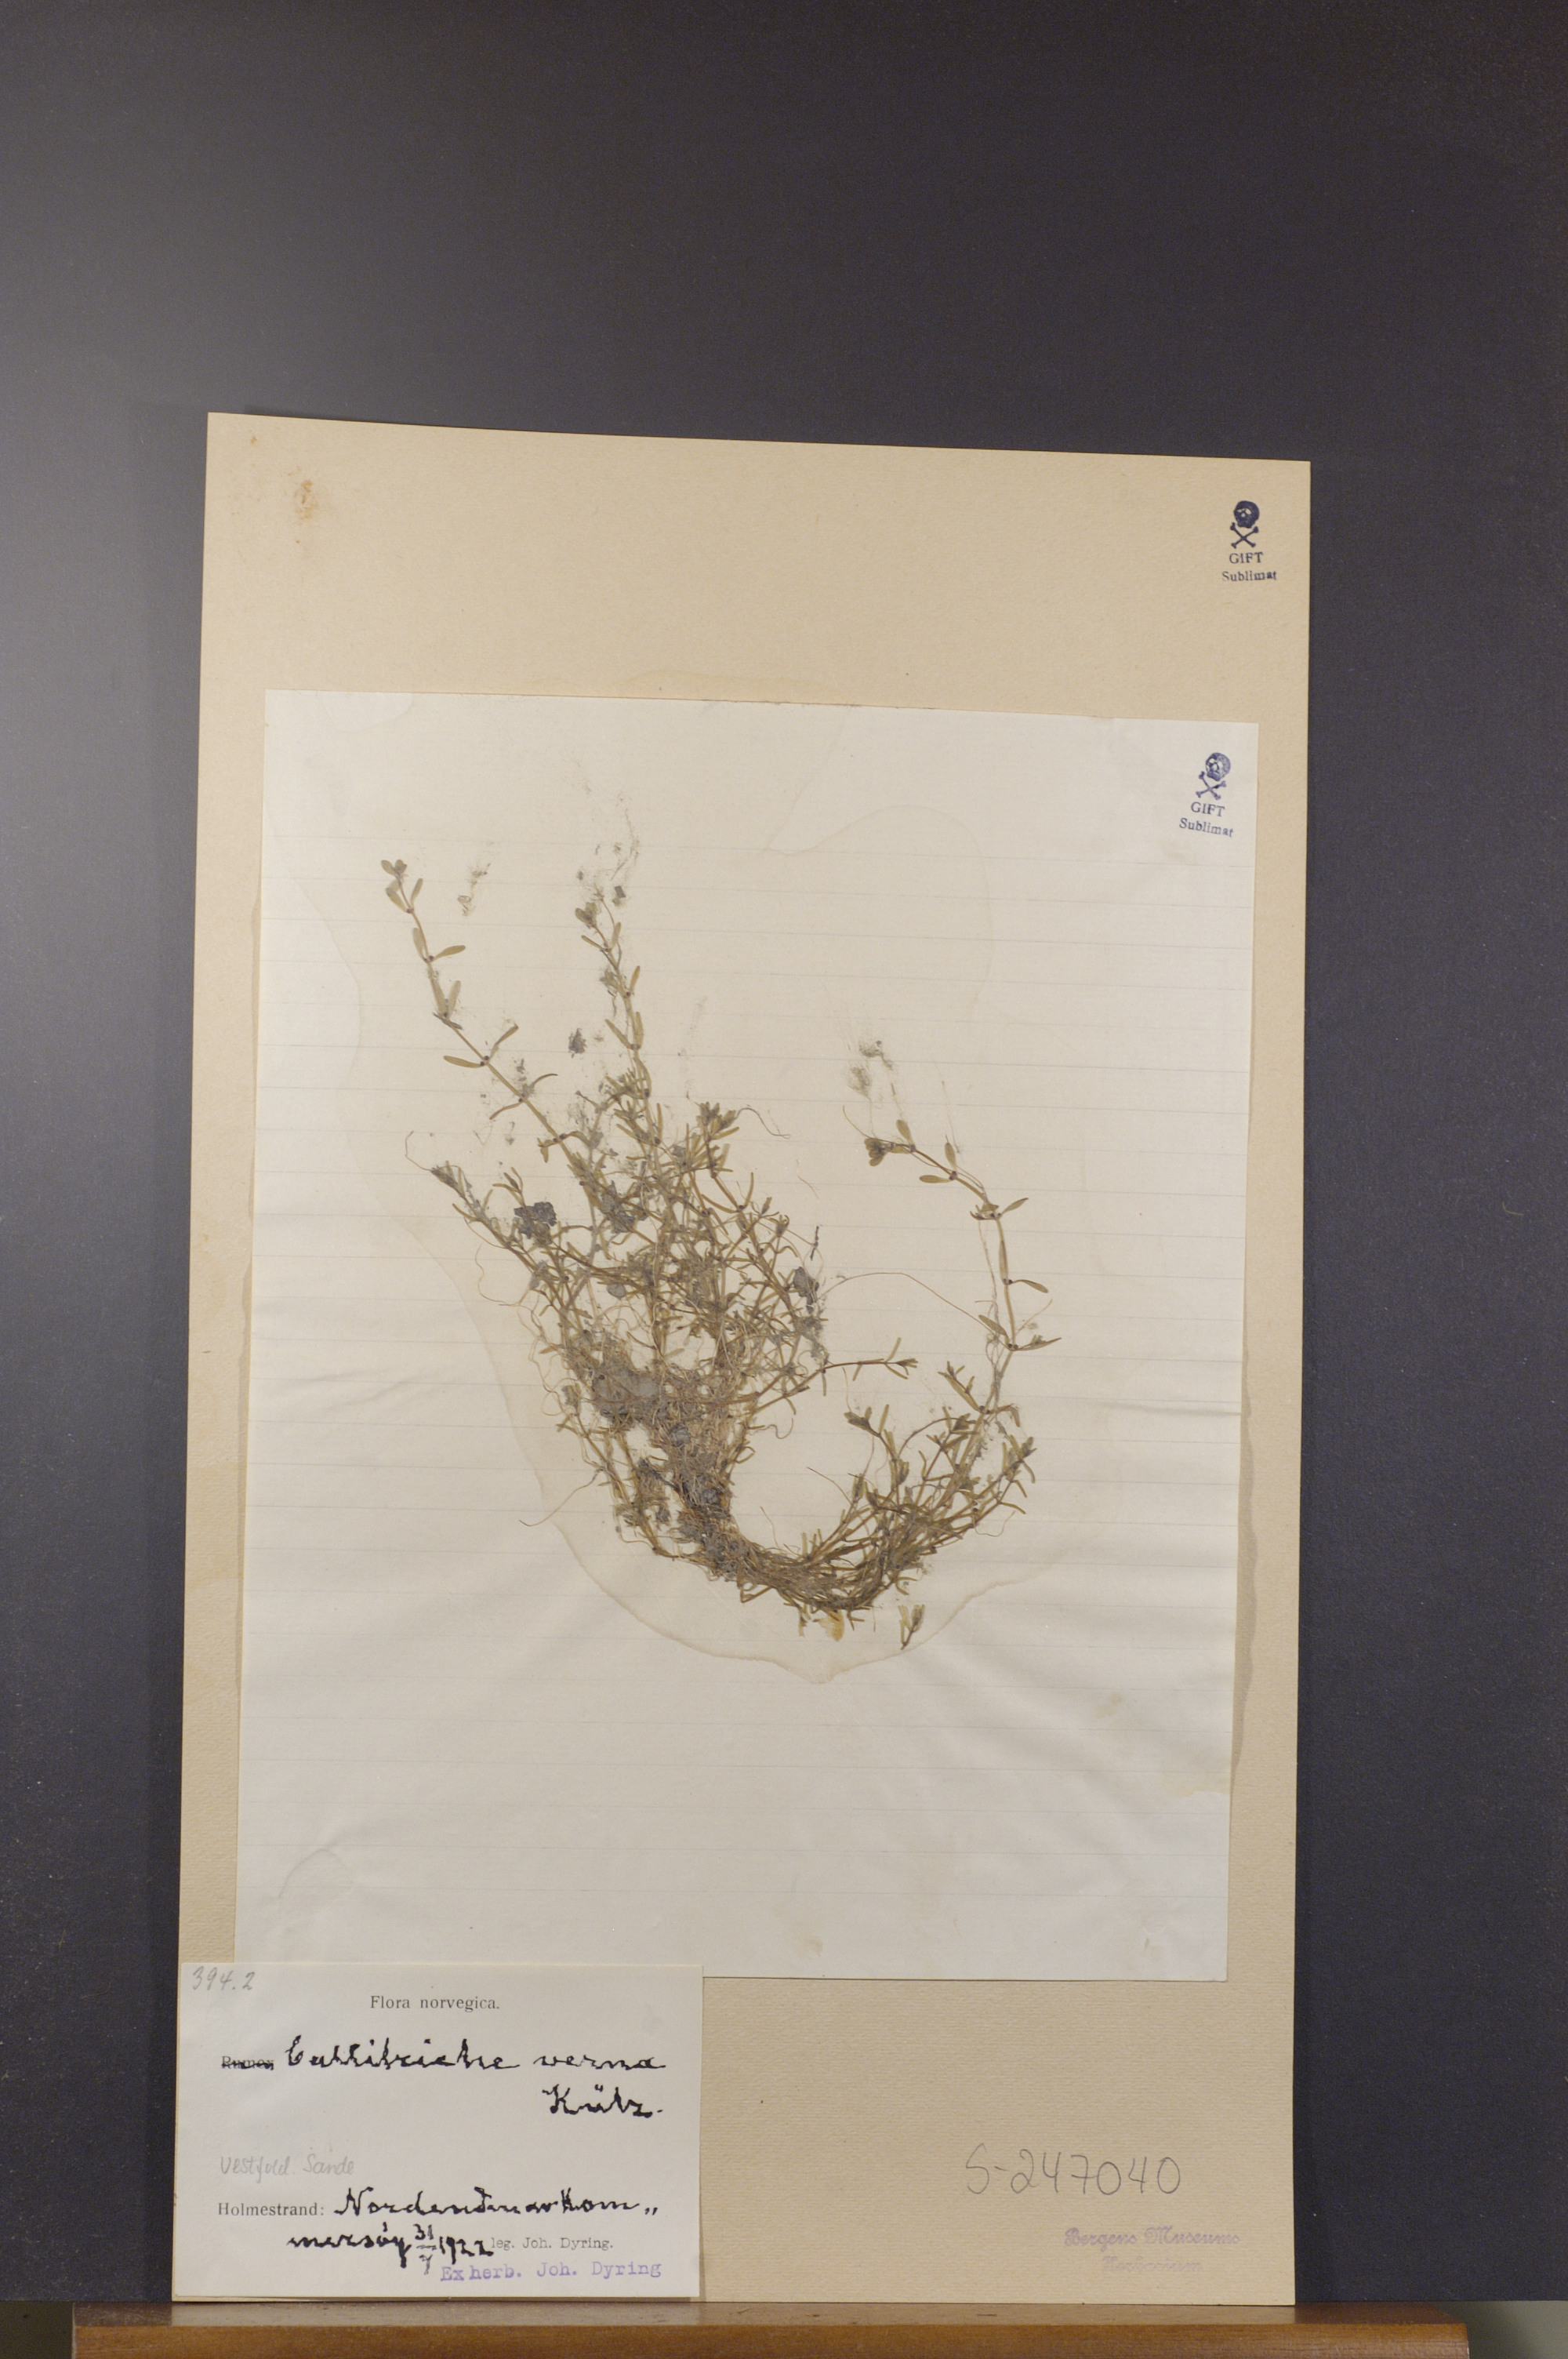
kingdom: Plantae
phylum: Tracheophyta
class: Magnoliopsida
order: Lamiales
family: Plantaginaceae
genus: Callitriche
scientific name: Callitriche palustris
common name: Spring water-starwort
